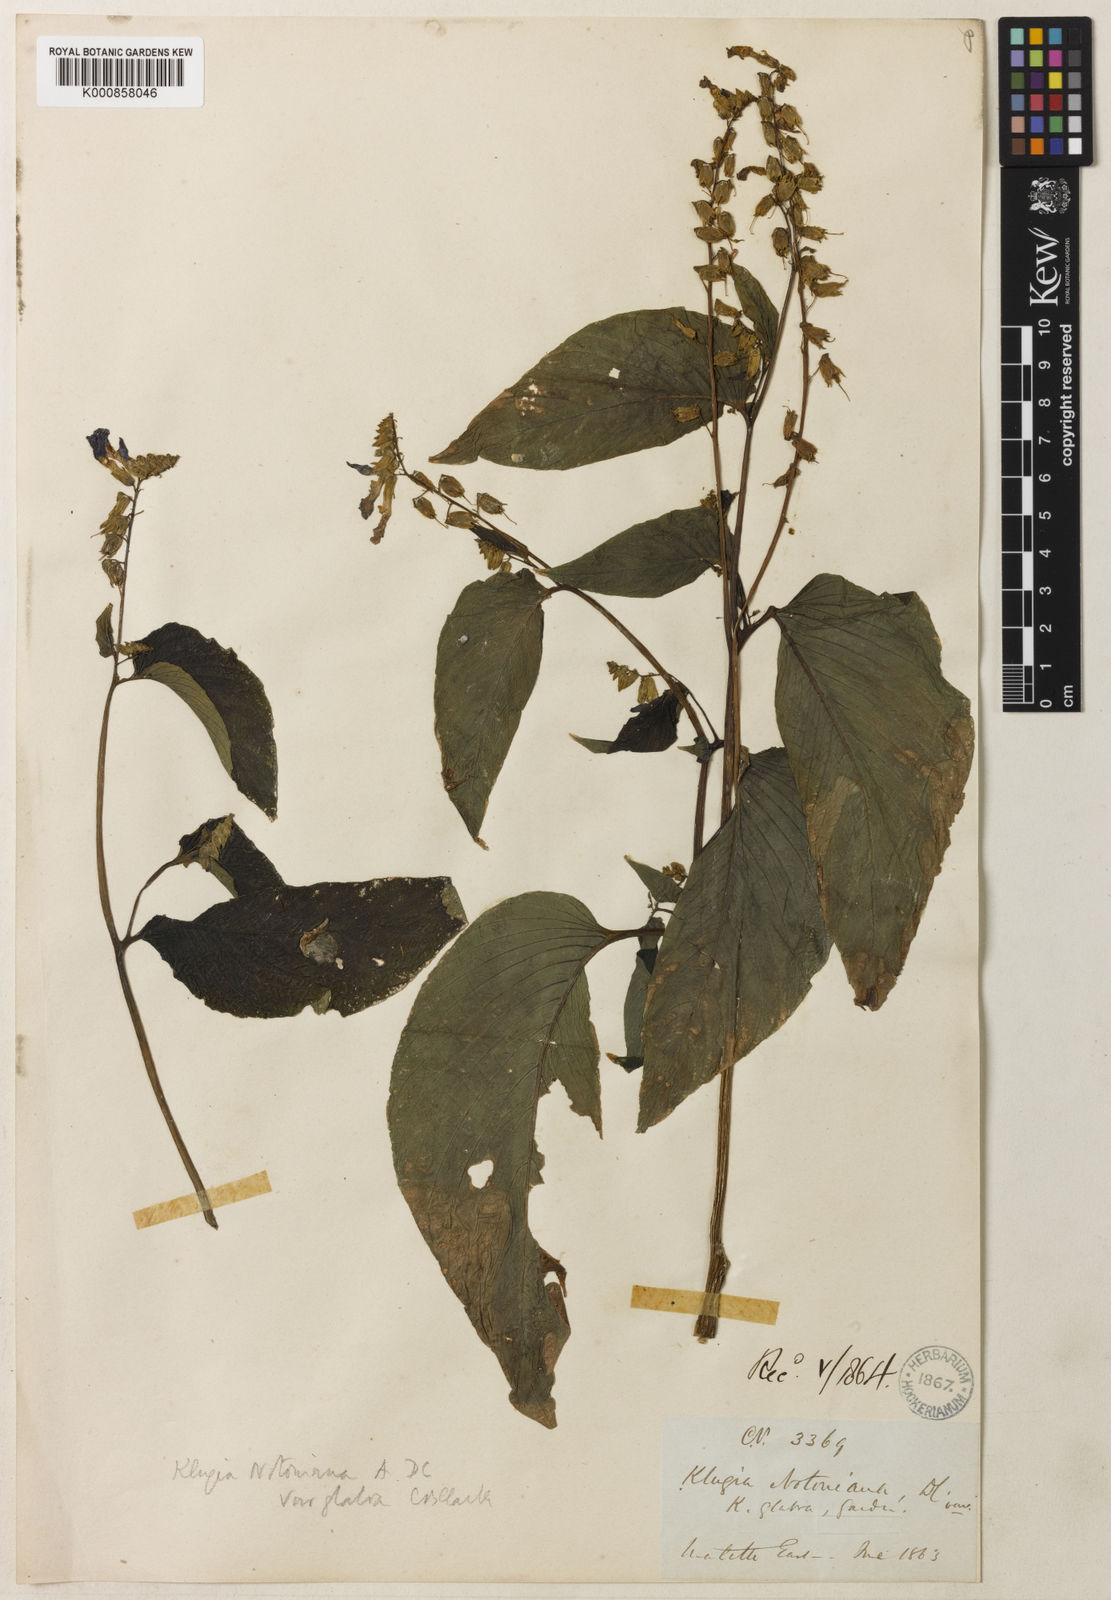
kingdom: Plantae
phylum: Tracheophyta
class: Magnoliopsida
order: Lamiales
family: Gesneriaceae
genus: Rhynchoglossum
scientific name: Rhynchoglossum notonianum
